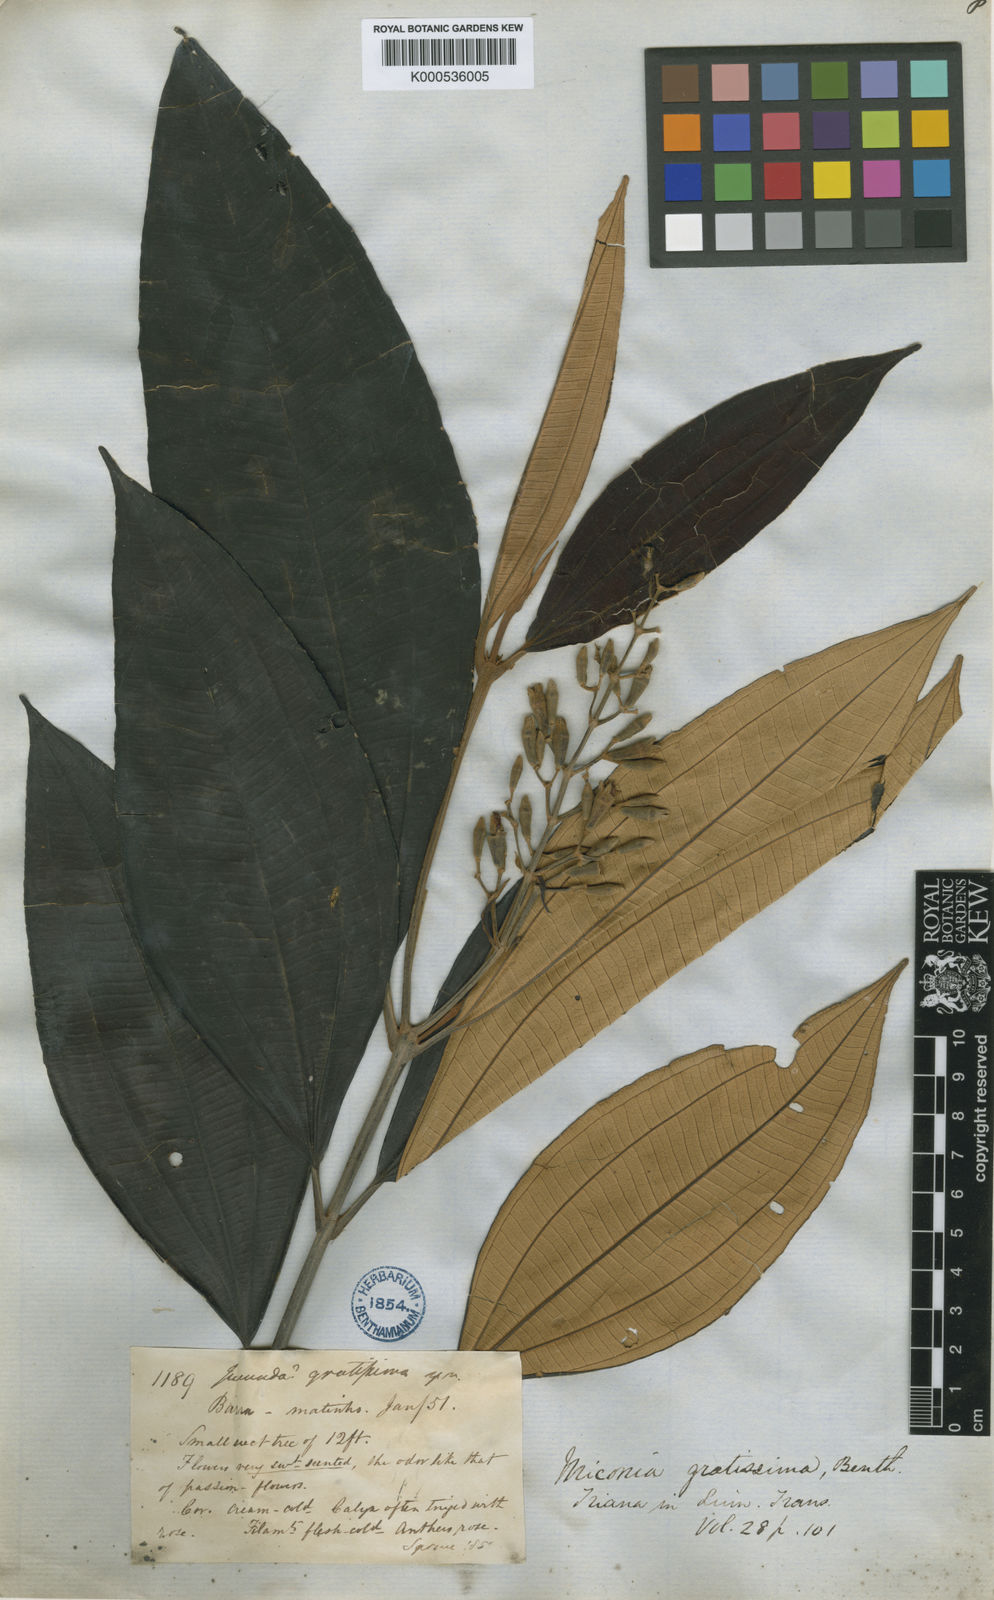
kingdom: Plantae
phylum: Tracheophyta
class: Magnoliopsida
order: Myrtales
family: Melastomataceae
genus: Miconia
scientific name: Miconia gratissima
